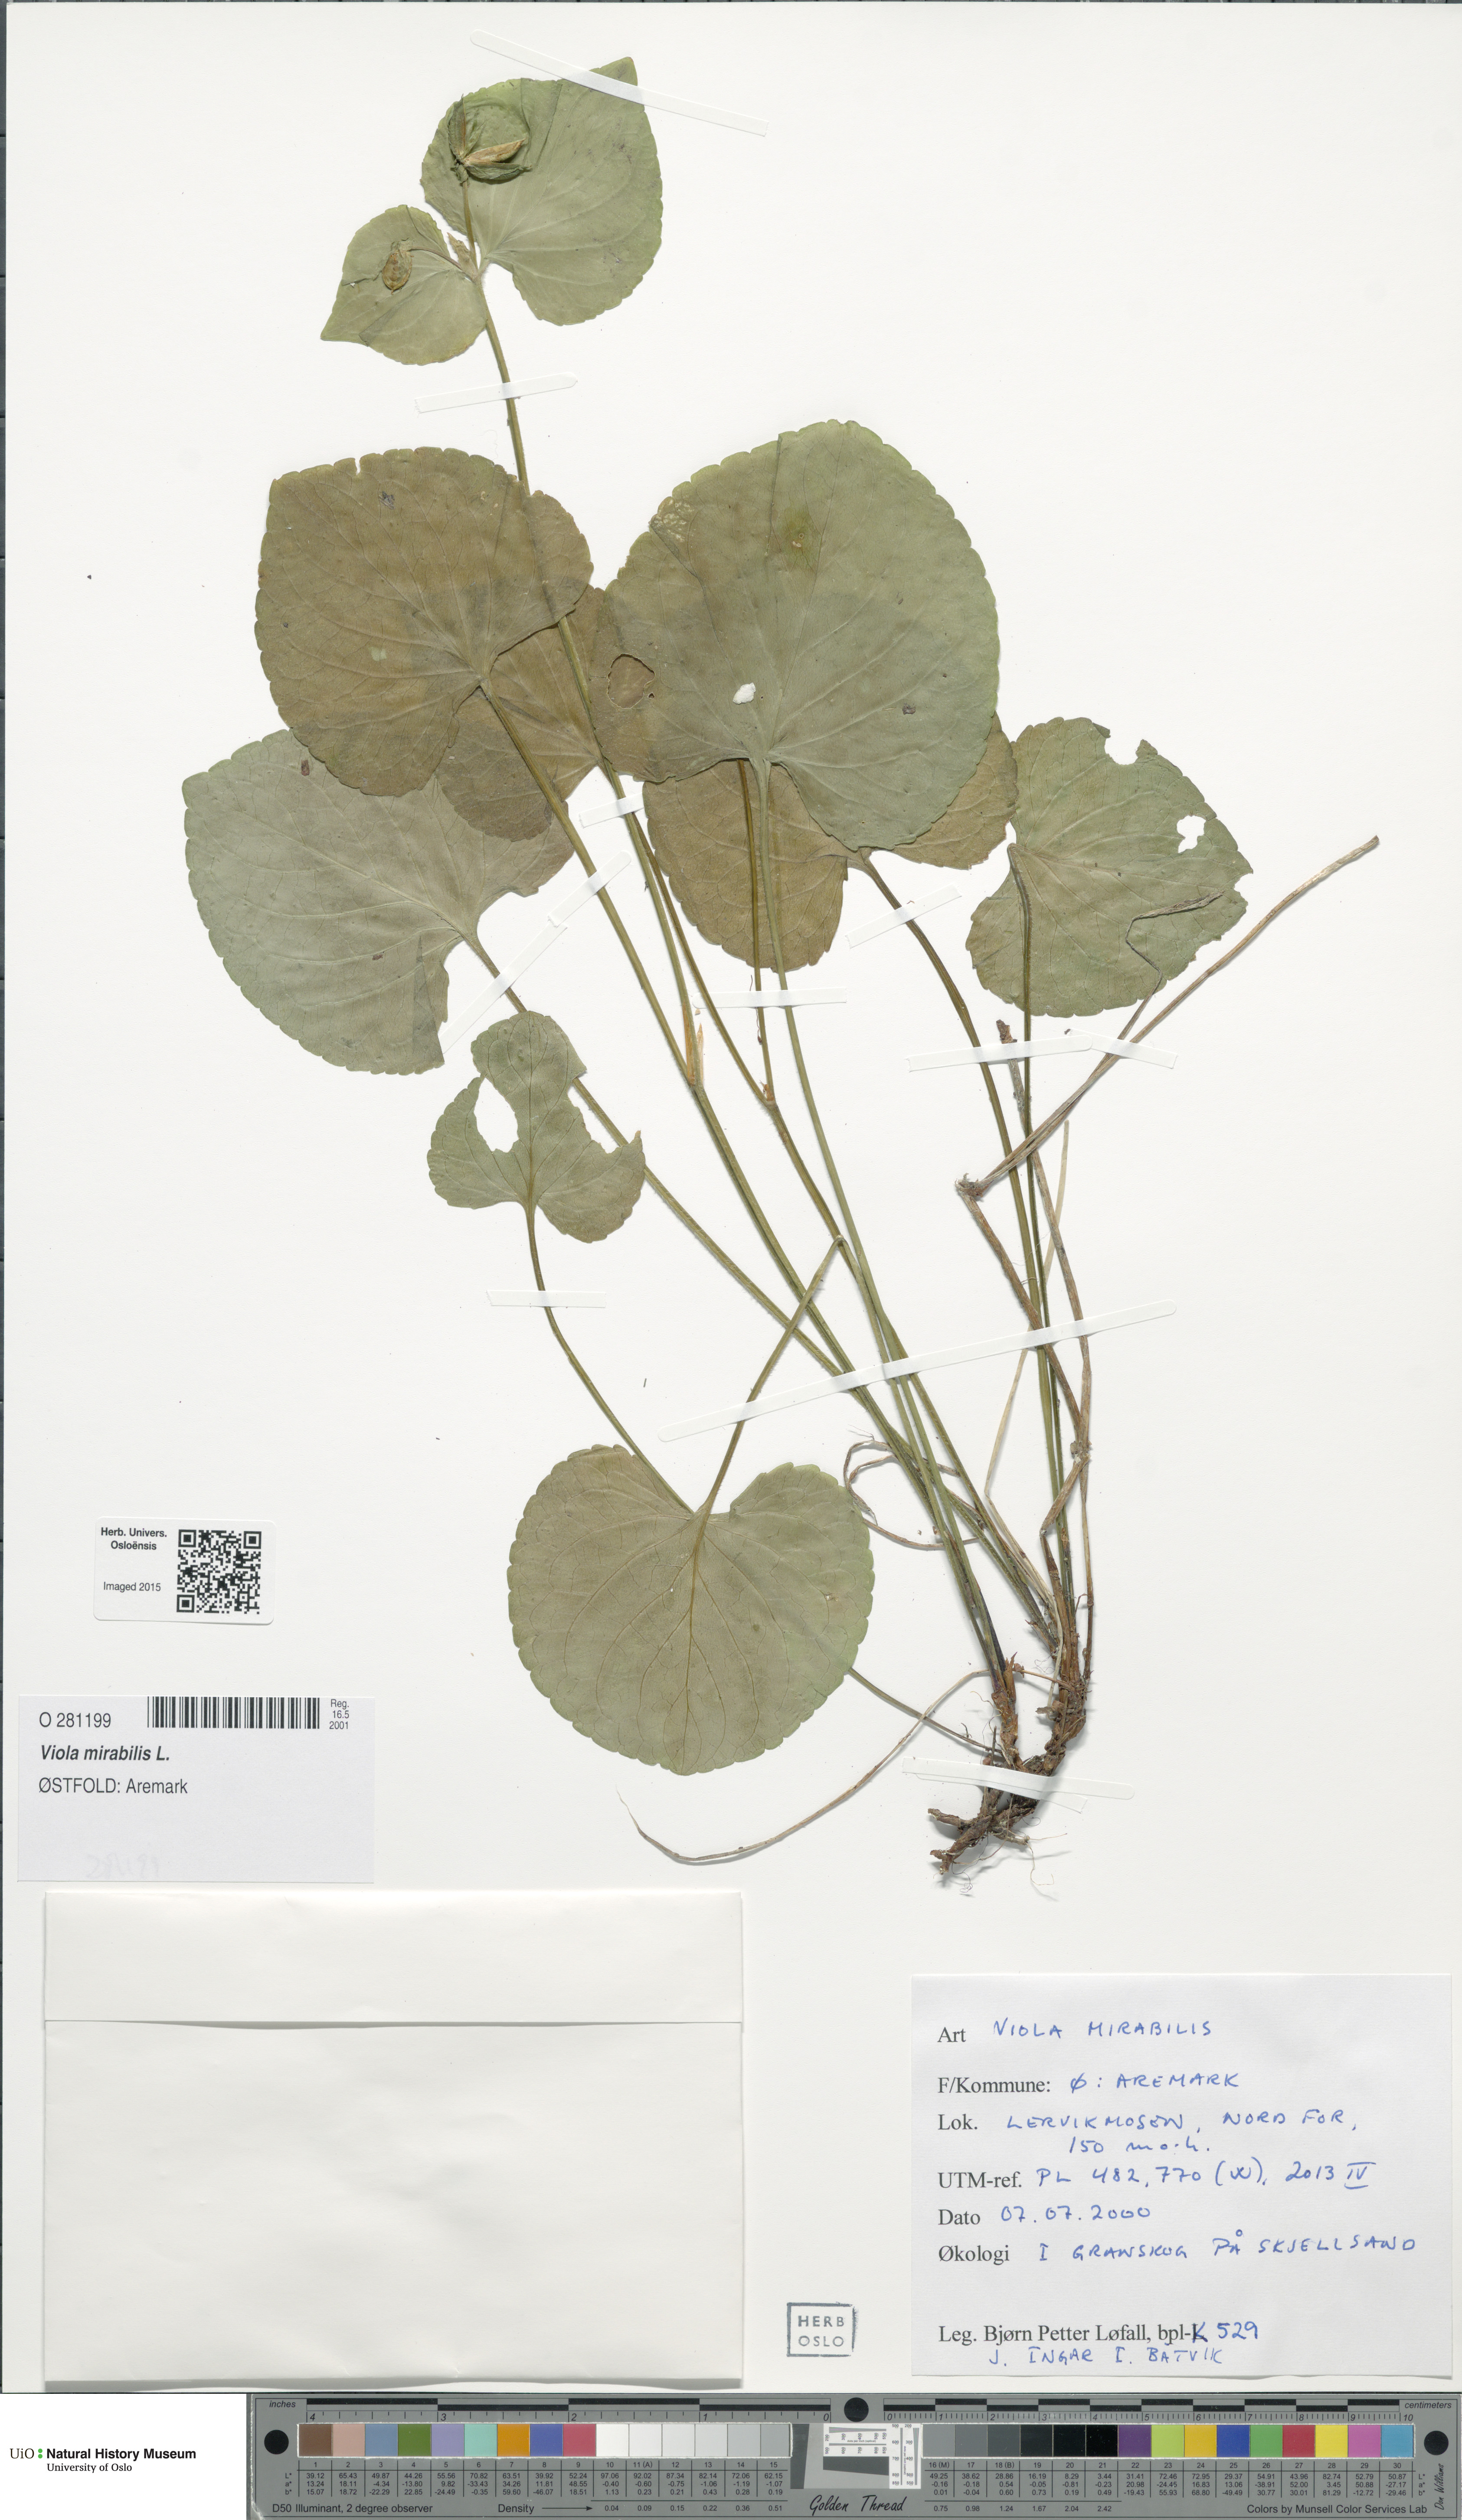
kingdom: Plantae
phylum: Tracheophyta
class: Magnoliopsida
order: Malpighiales
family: Violaceae
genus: Viola
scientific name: Viola mirabilis
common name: Wonder violet
